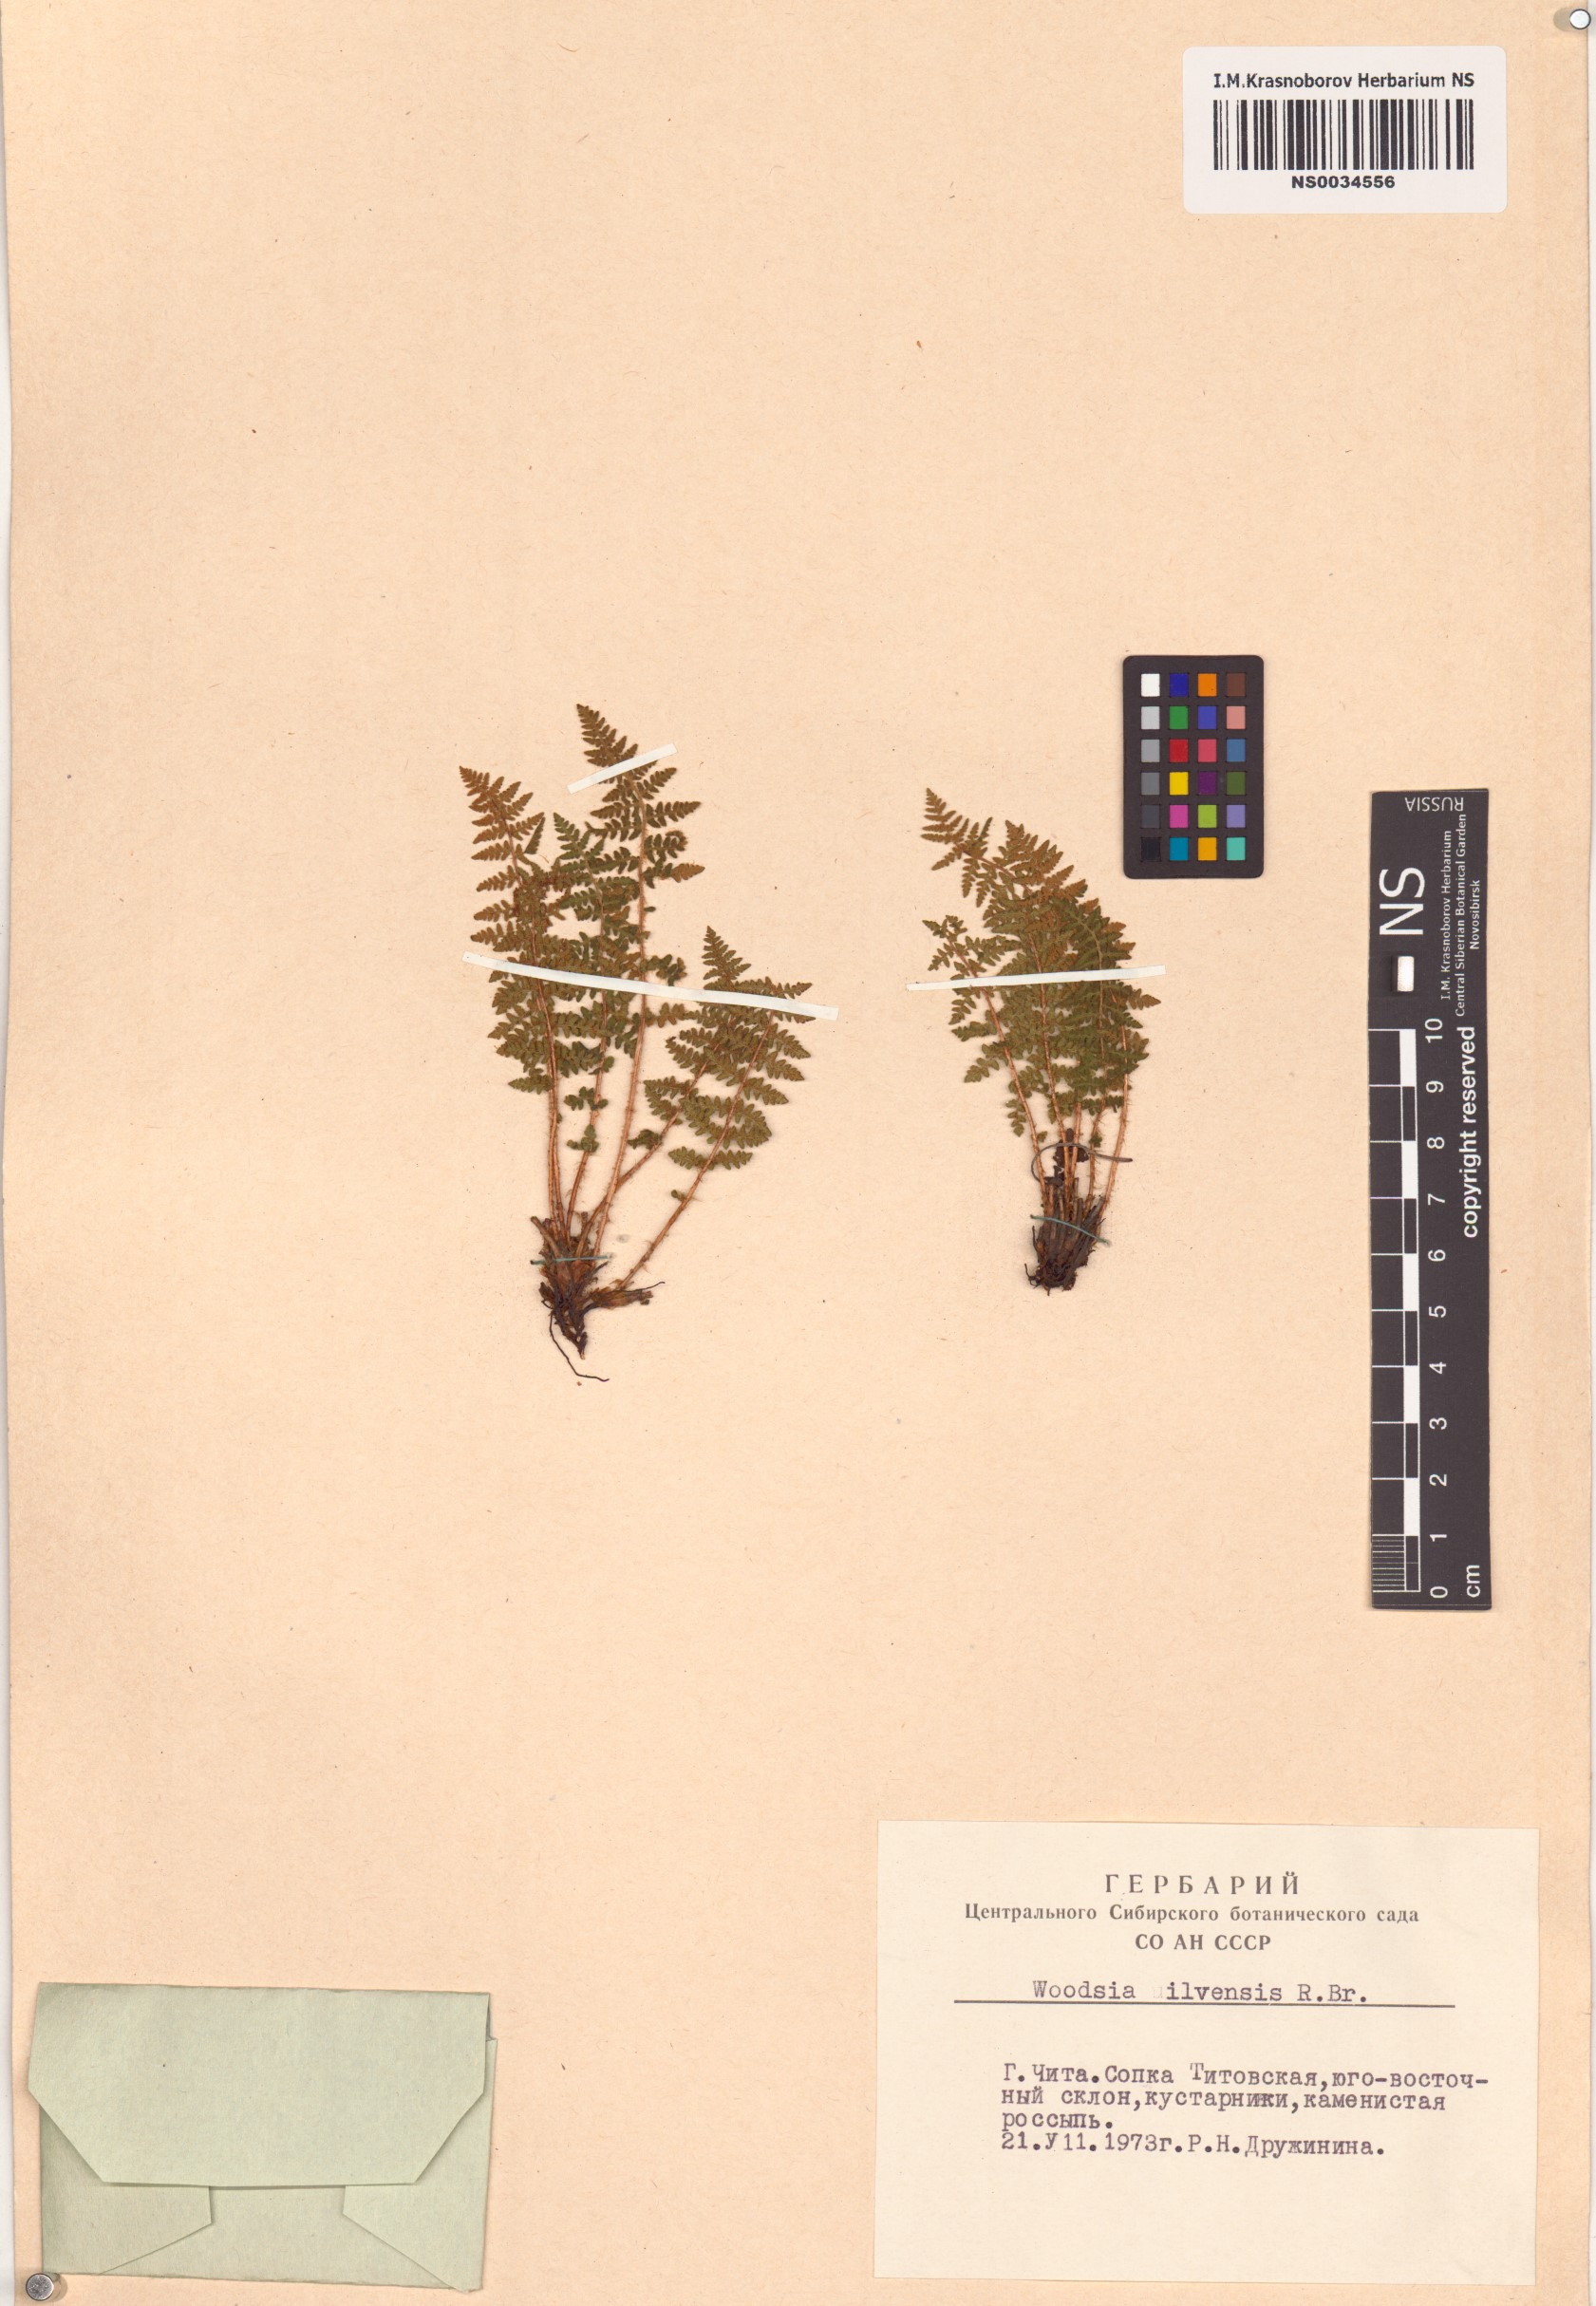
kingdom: Plantae
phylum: Tracheophyta
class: Polypodiopsida
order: Polypodiales
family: Woodsiaceae
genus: Woodsia
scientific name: Woodsia ilvensis
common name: Fragrant woodsia
